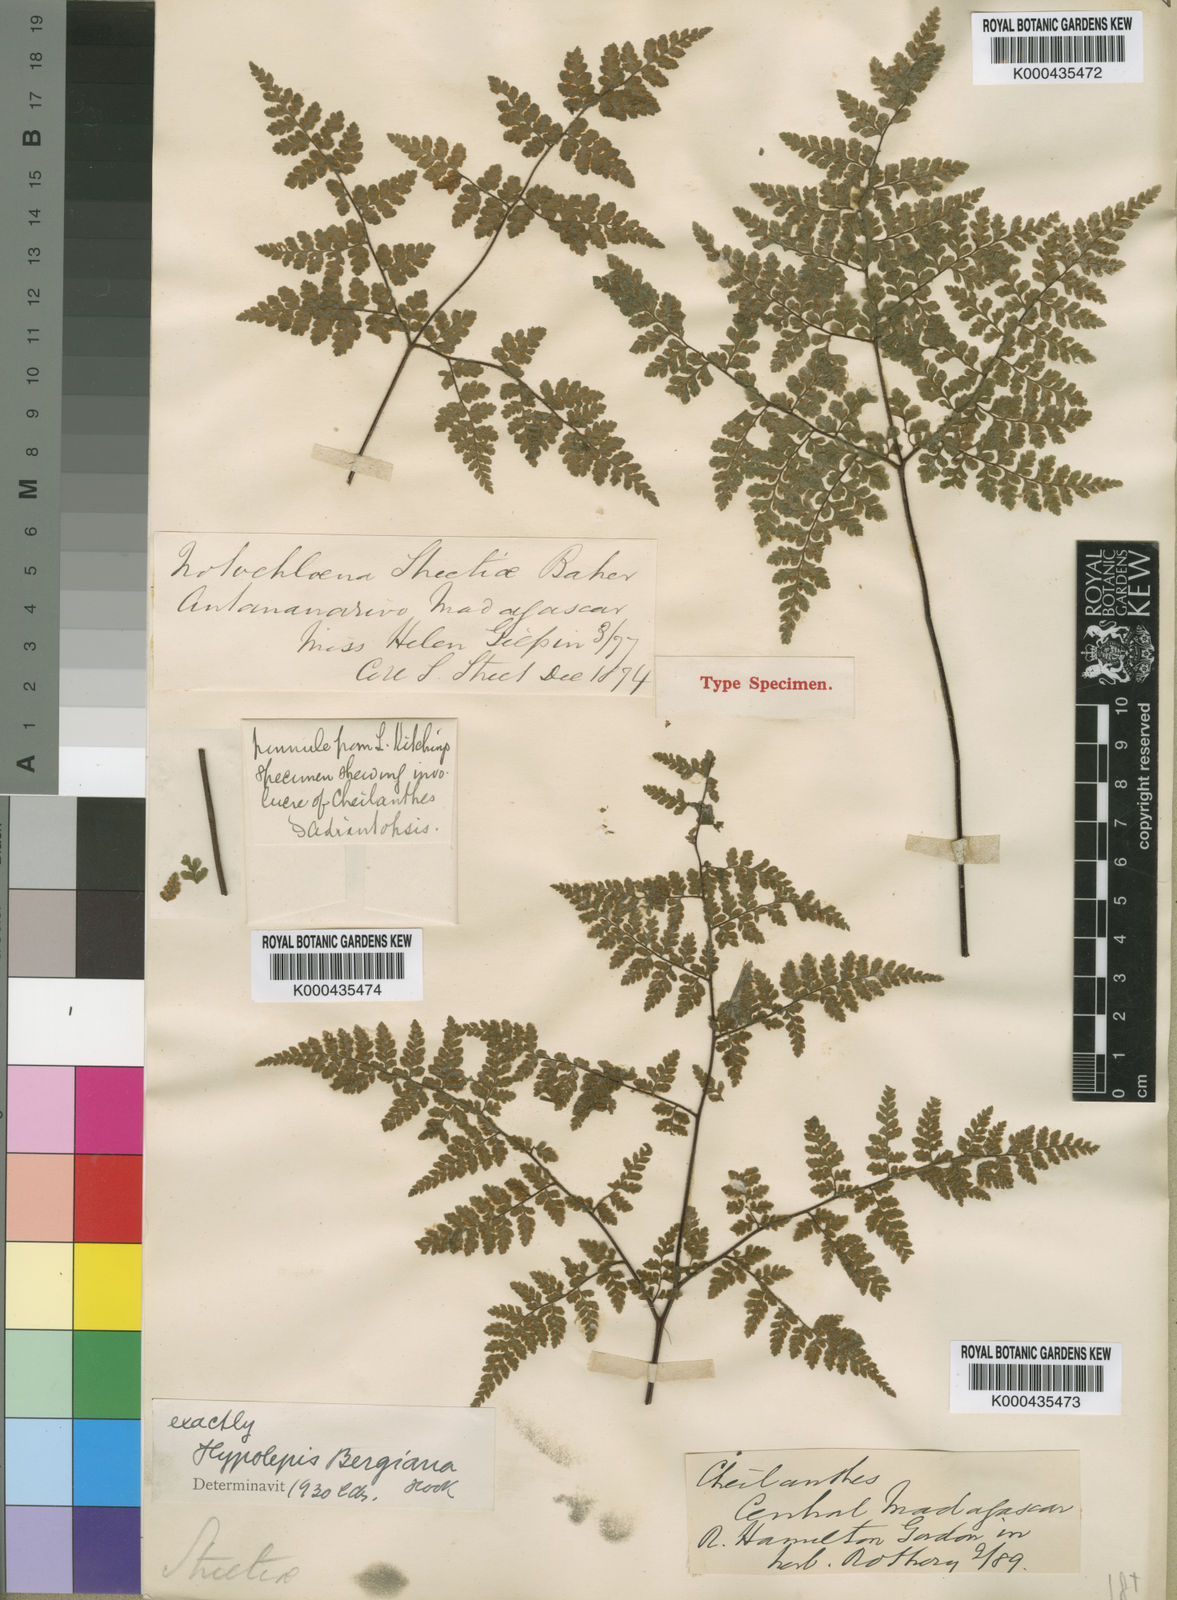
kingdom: Plantae
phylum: Tracheophyta
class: Polypodiopsida
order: Polypodiales
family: Pteridaceae
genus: Cheilanthes
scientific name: Cheilanthes bergiana
